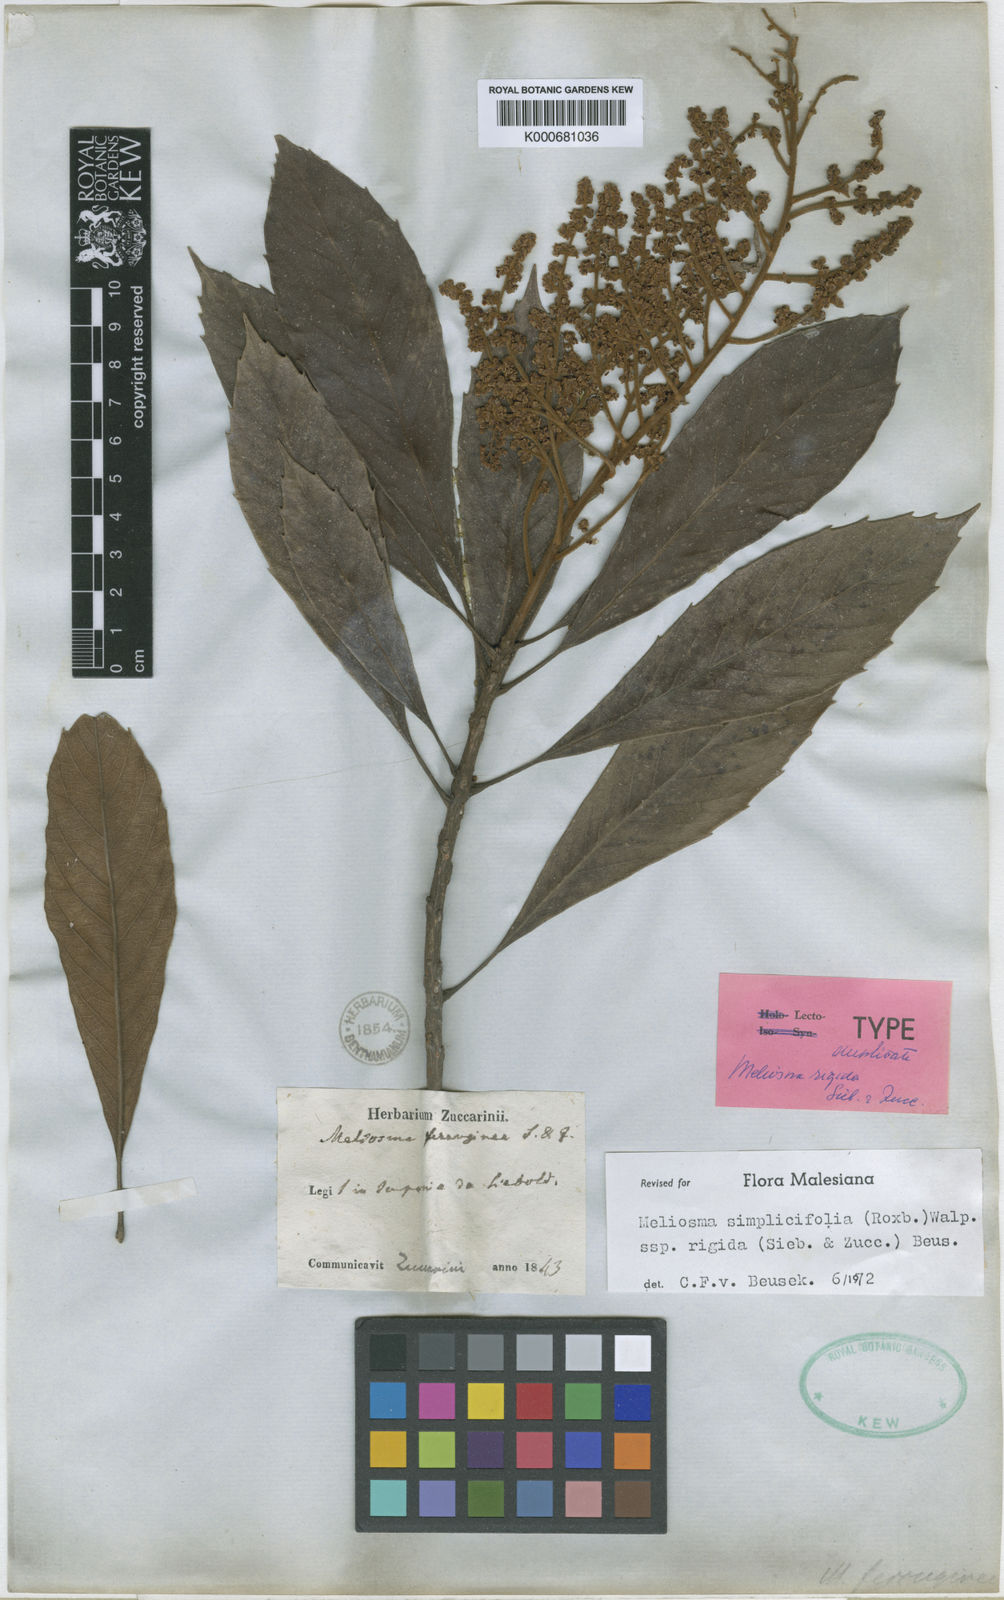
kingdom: Plantae
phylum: Tracheophyta
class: Magnoliopsida
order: Proteales
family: Sabiaceae
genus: Meliosma
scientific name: Meliosma rigida
